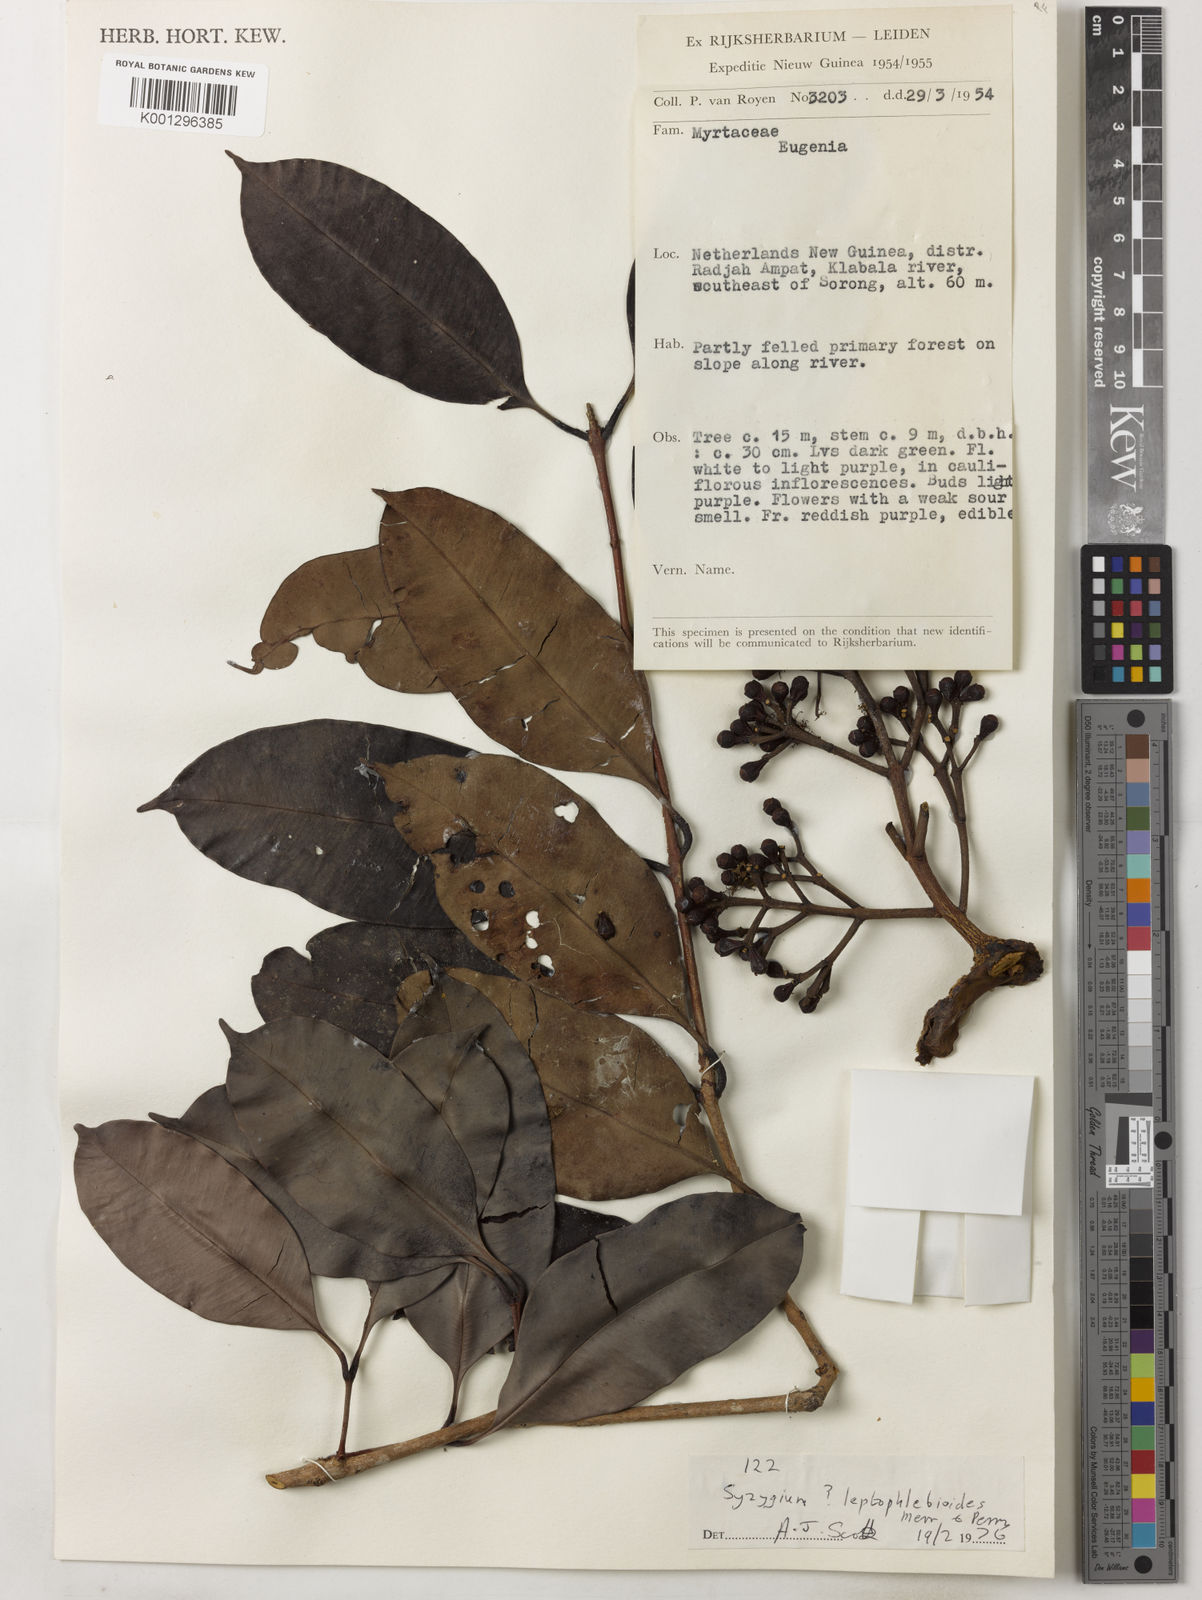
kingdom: Plantae
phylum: Tracheophyta
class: Magnoliopsida
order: Myrtales
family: Myrtaceae
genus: Syzygium
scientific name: Syzygium branderhorstii
